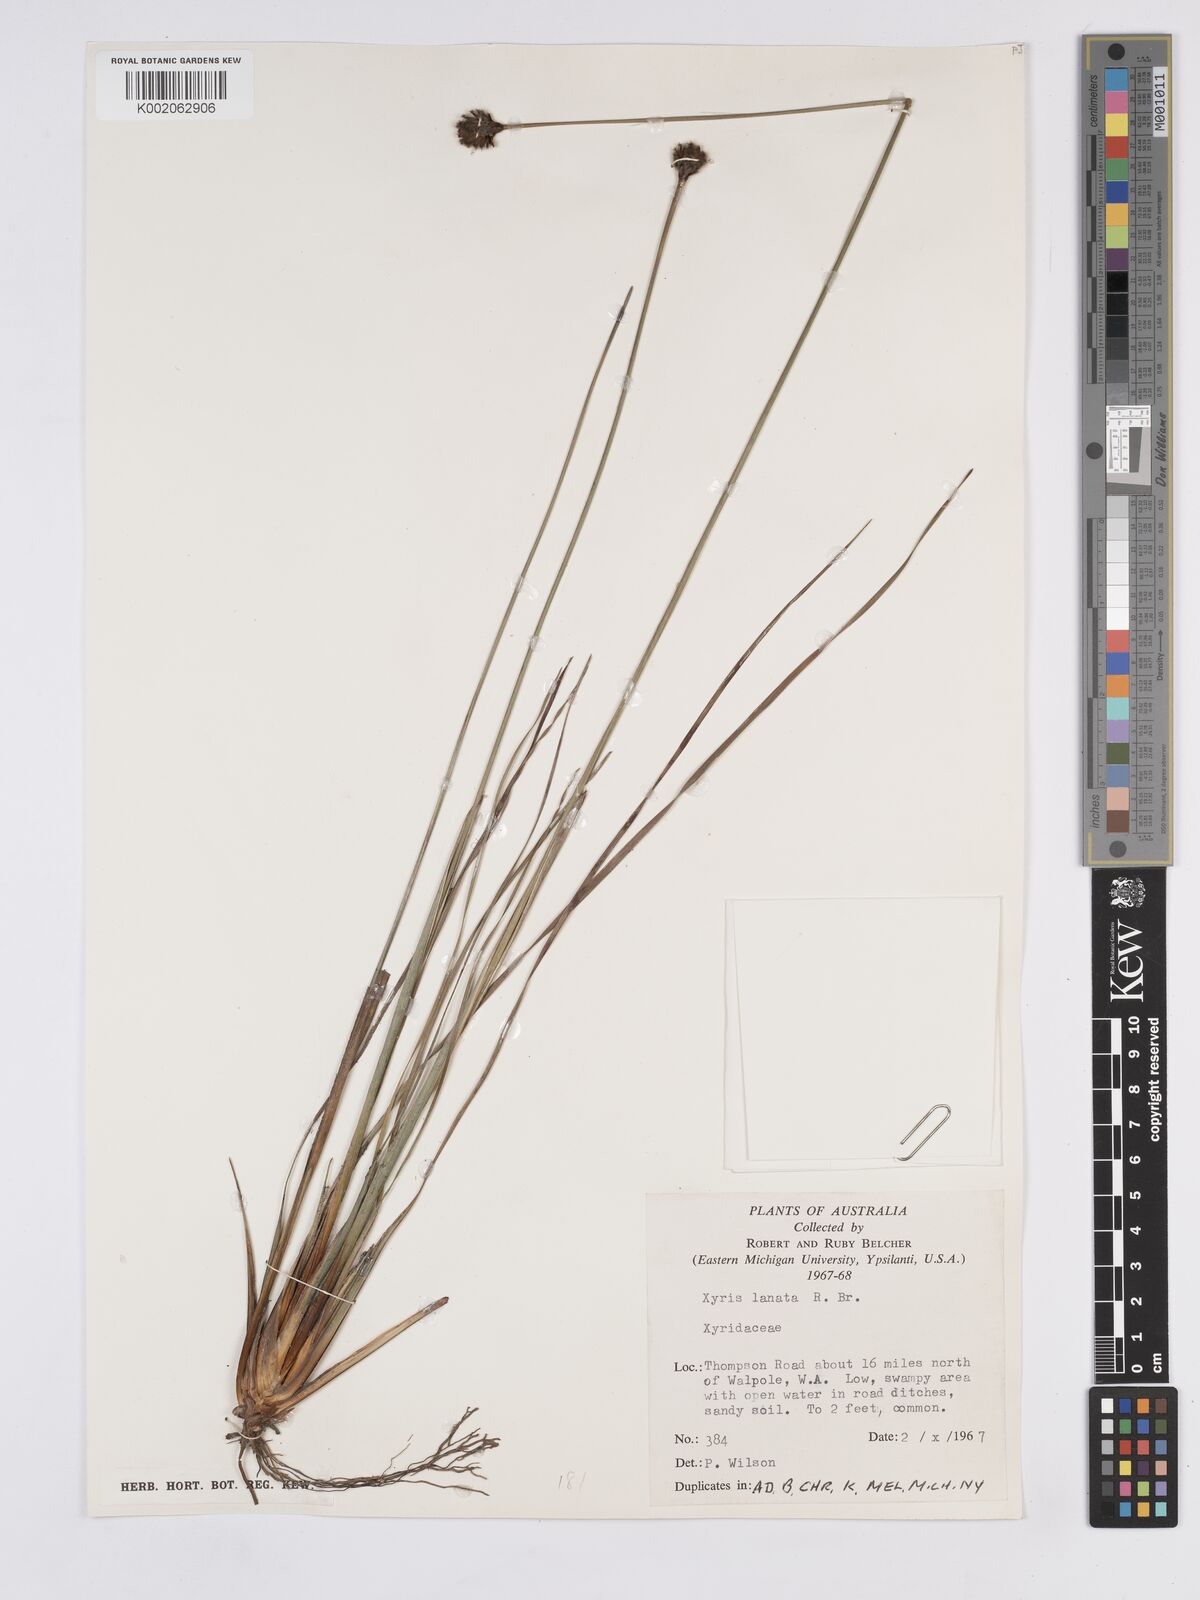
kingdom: Plantae
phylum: Tracheophyta
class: Liliopsida
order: Poales
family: Xyridaceae
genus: Xyris
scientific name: Xyris lanata
